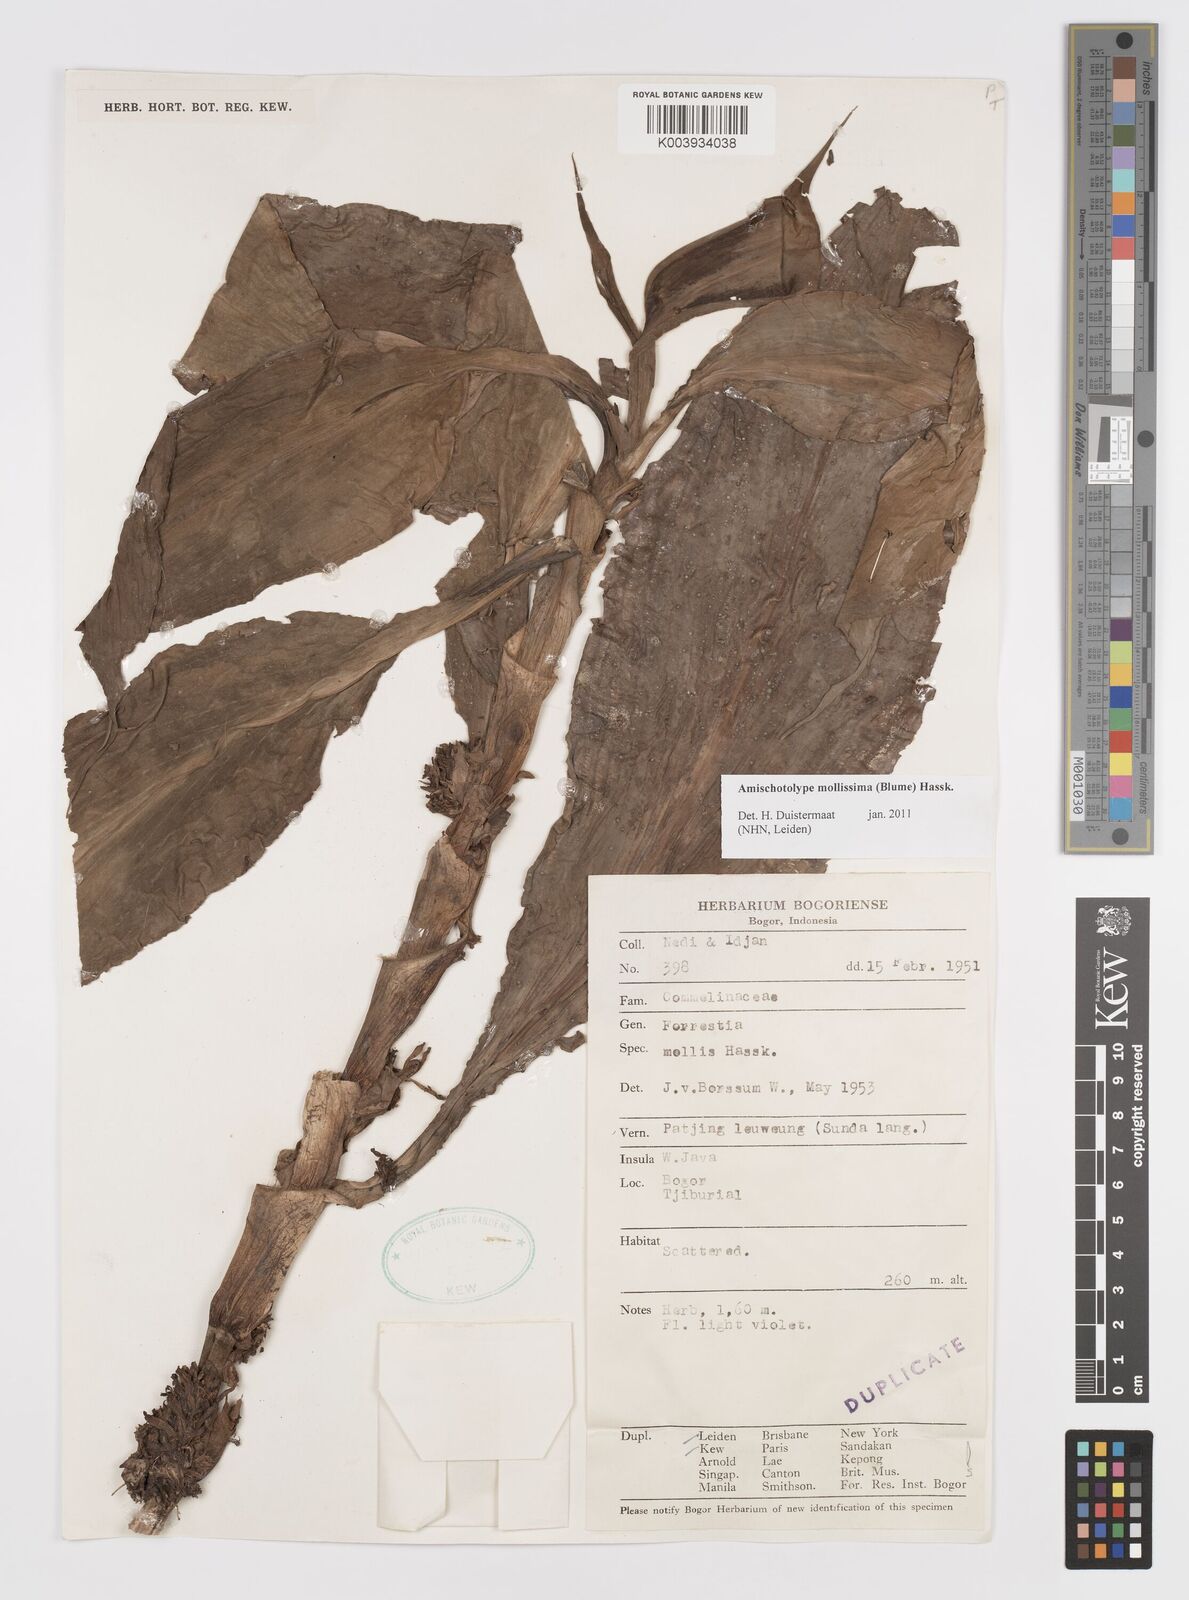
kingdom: Plantae
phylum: Tracheophyta
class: Liliopsida
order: Commelinales
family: Commelinaceae
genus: Amischotolype
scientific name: Amischotolype mollissima
